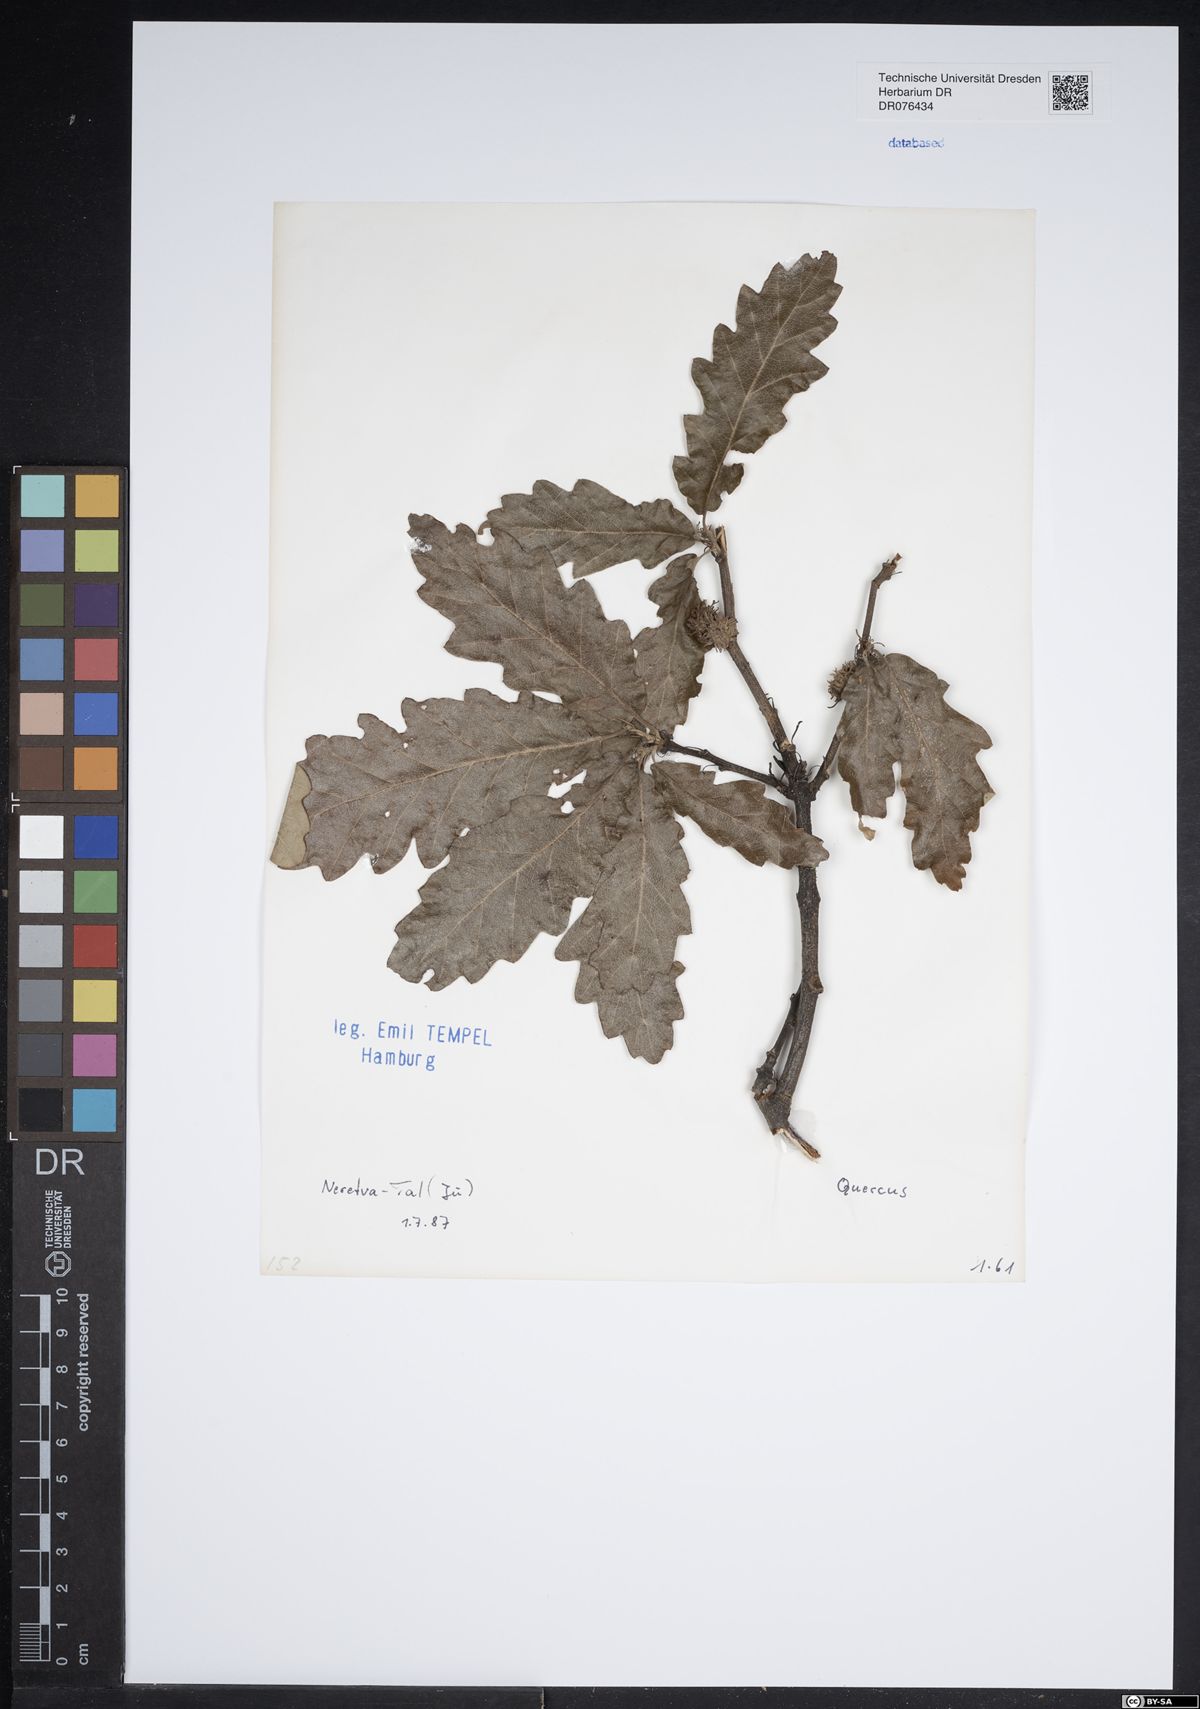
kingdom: Plantae
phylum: Tracheophyta
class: Magnoliopsida
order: Fagales
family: Fagaceae
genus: Quercus
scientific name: Quercus
